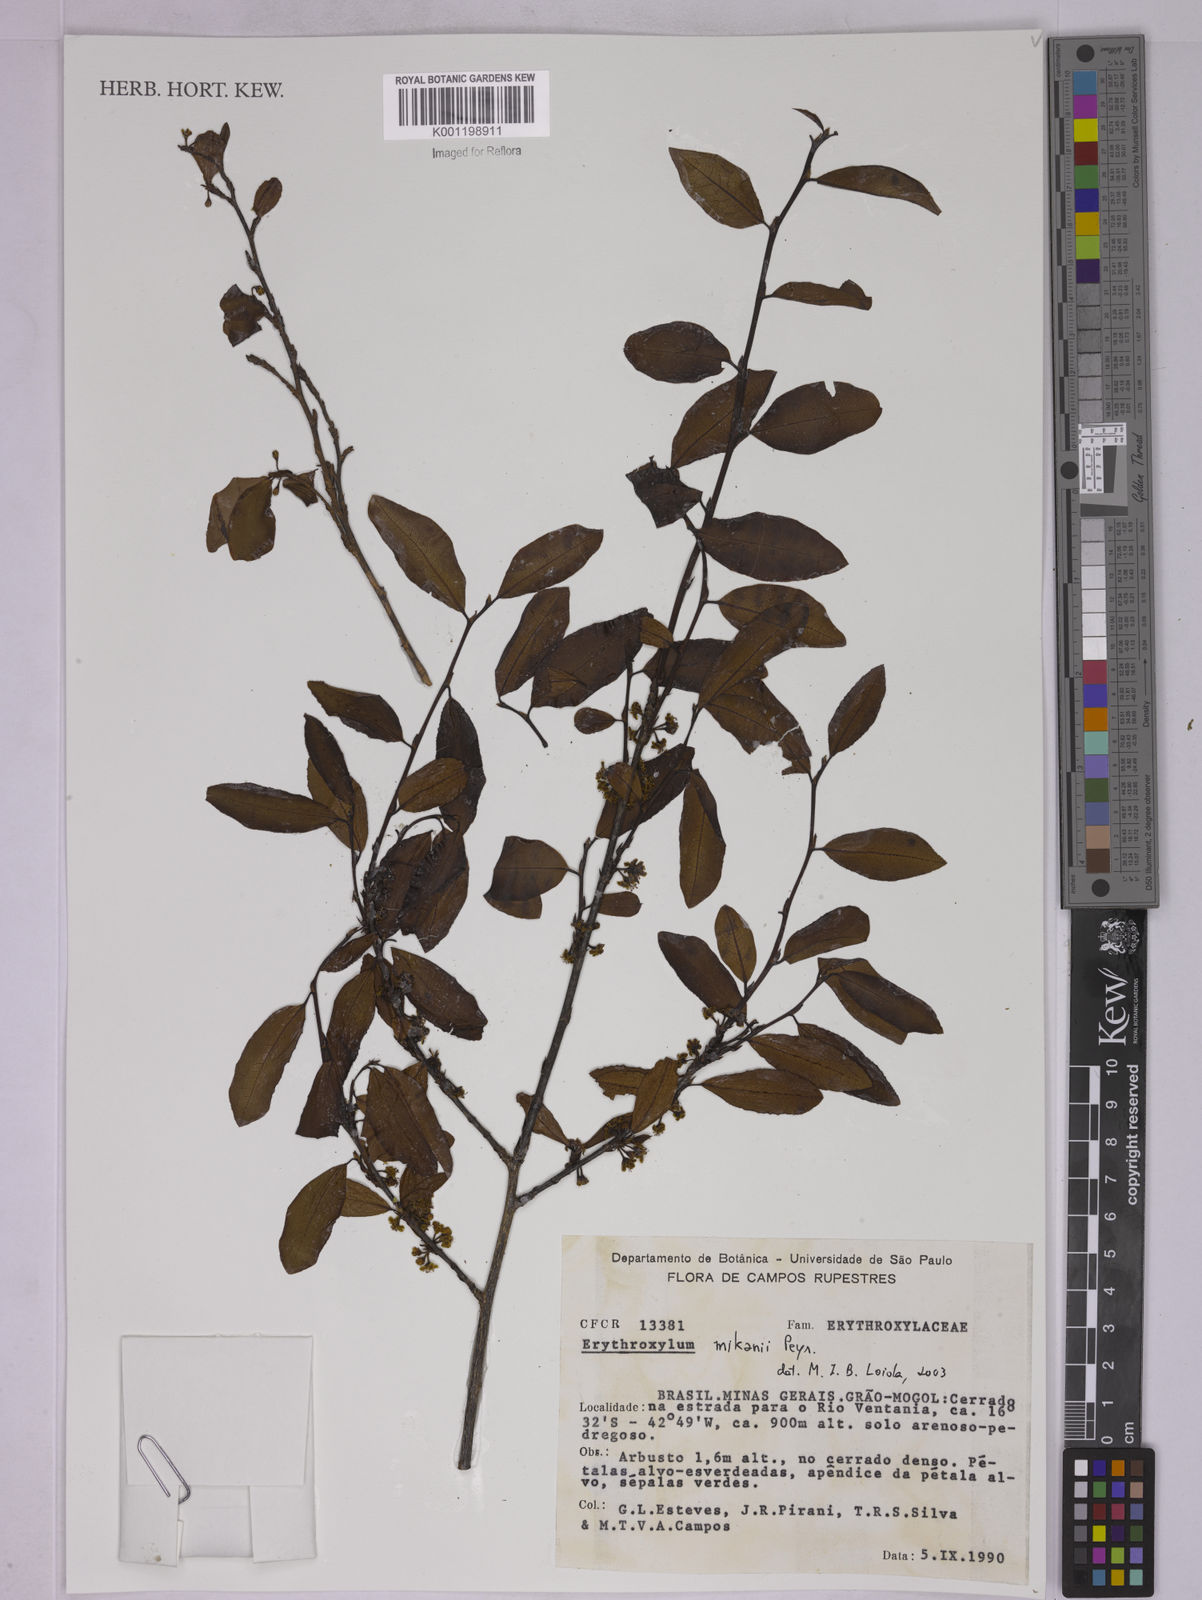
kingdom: Plantae
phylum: Tracheophyta
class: Magnoliopsida
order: Malpighiales
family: Erythroxylaceae
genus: Erythroxylum
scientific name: Erythroxylum mikanii
